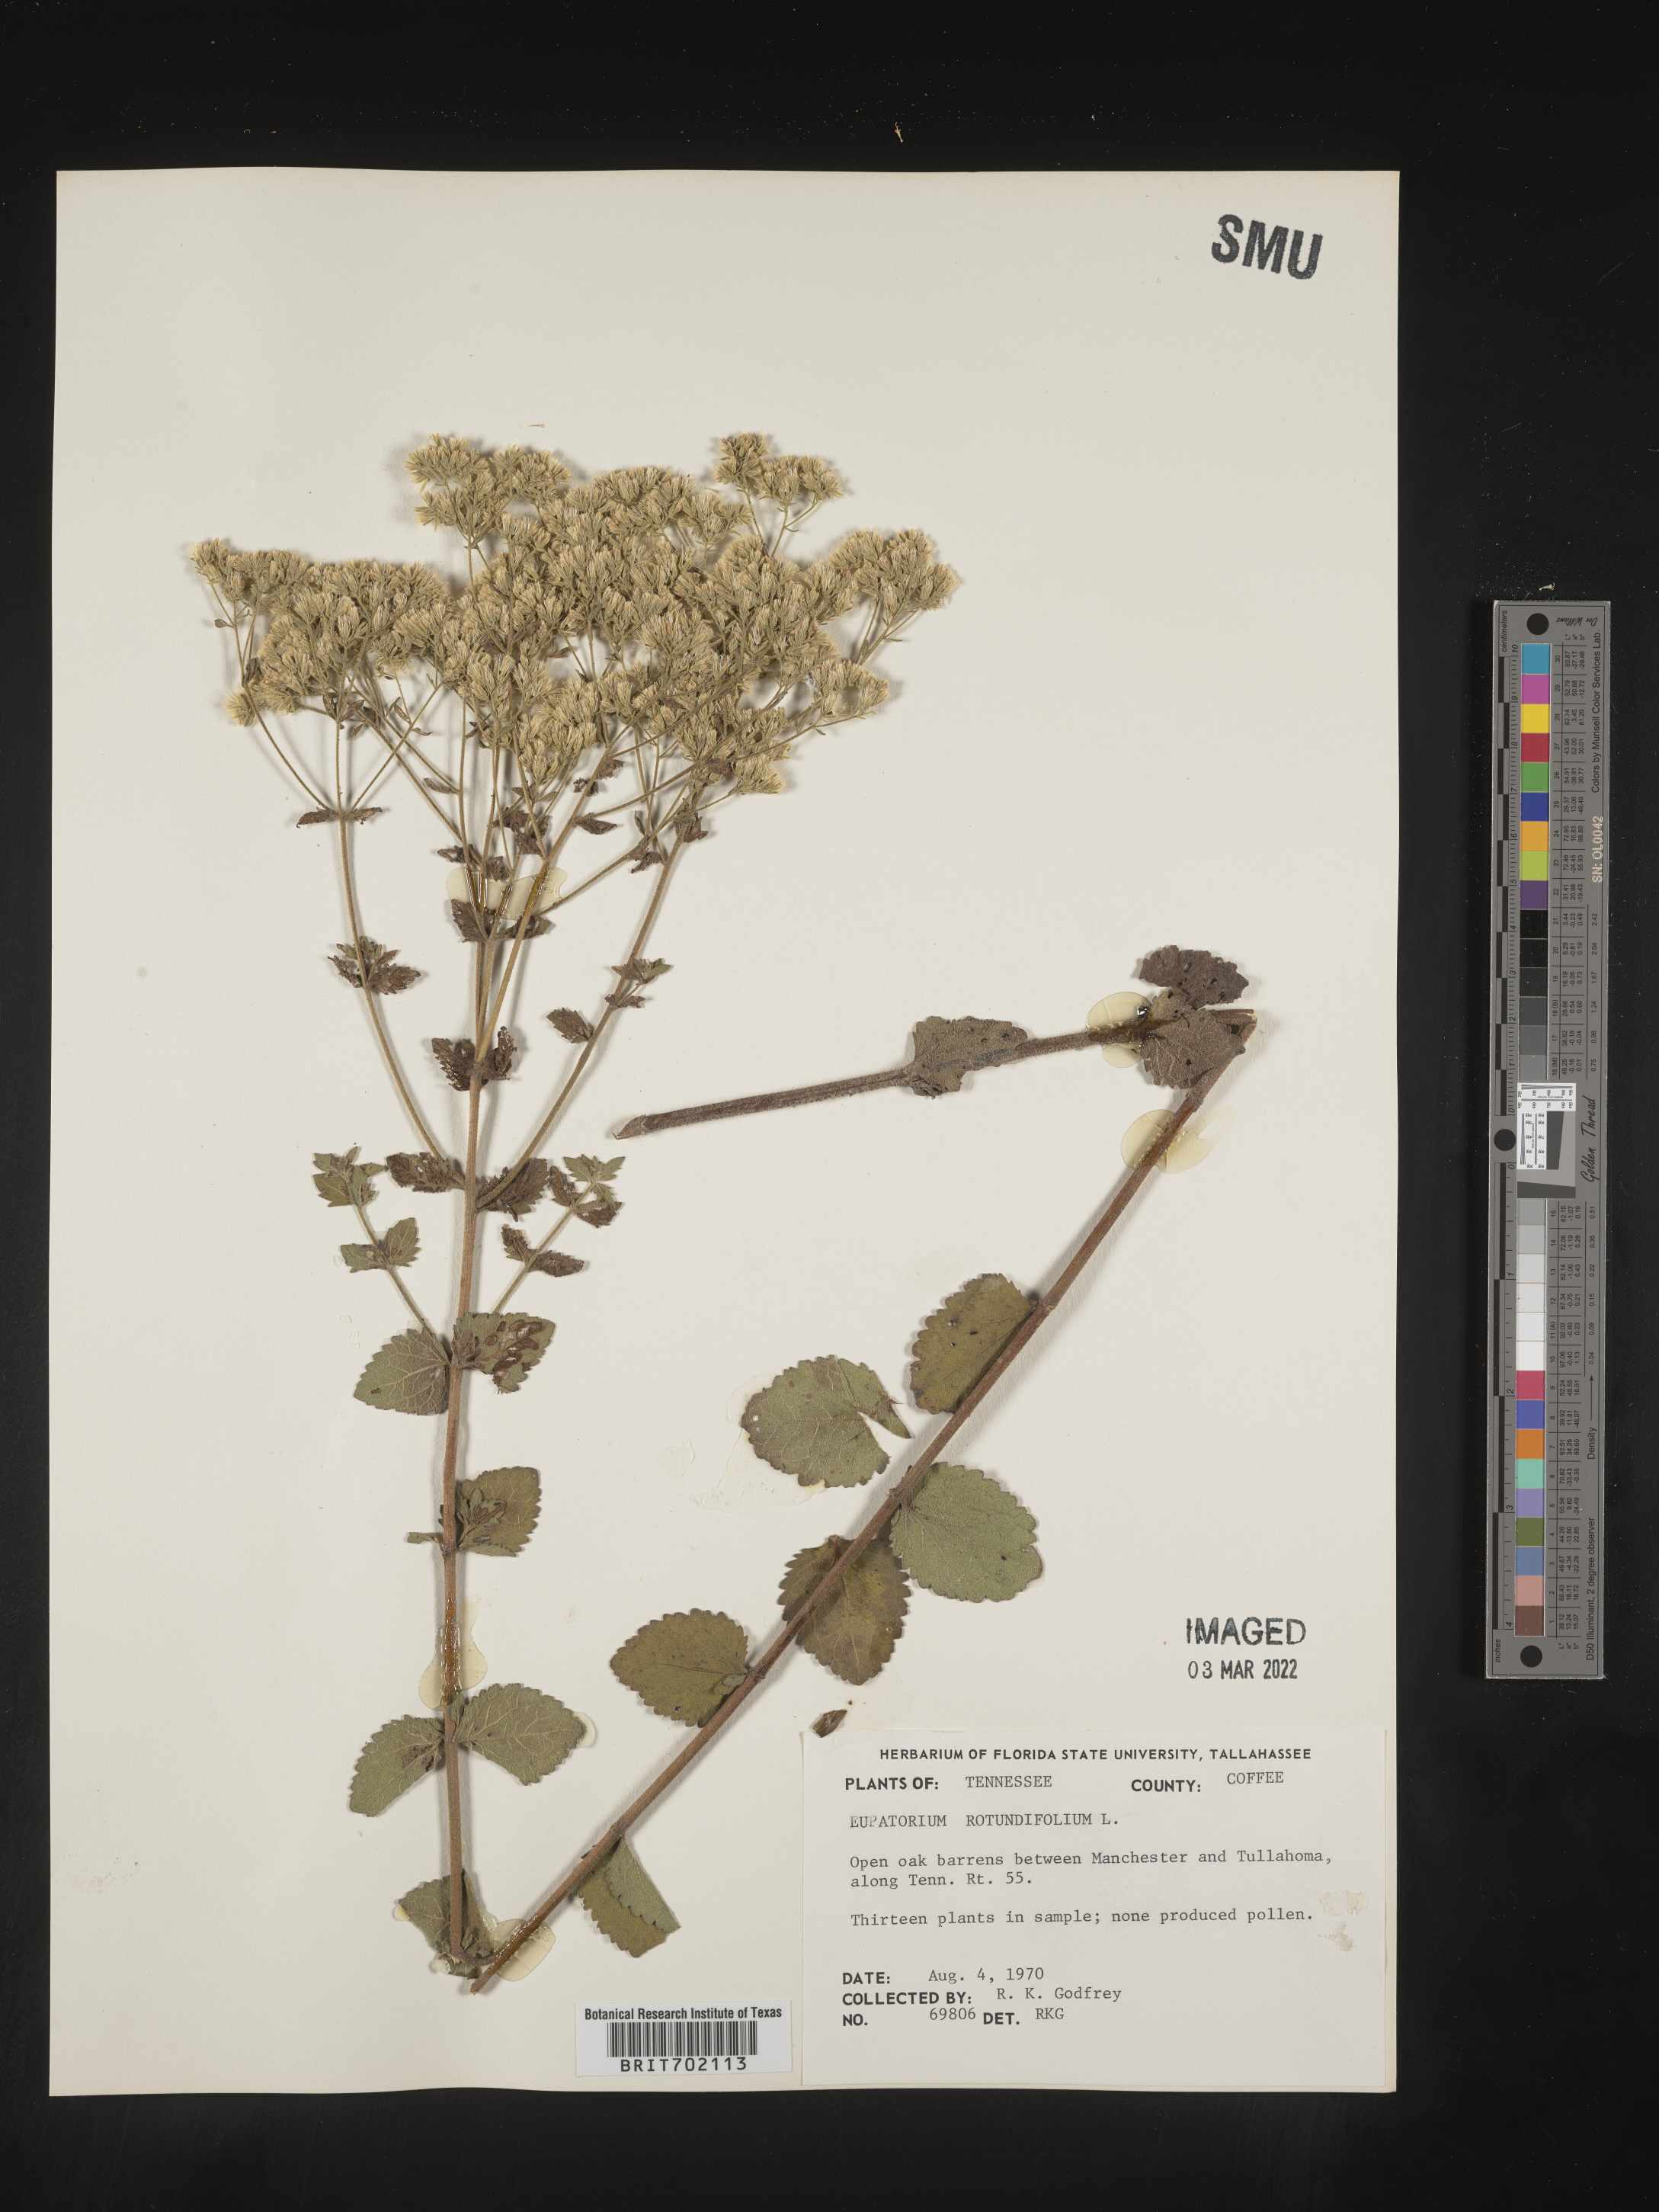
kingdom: Plantae
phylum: Tracheophyta
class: Magnoliopsida
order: Asterales
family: Asteraceae
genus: Eupatorium
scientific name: Eupatorium rotundifolium
